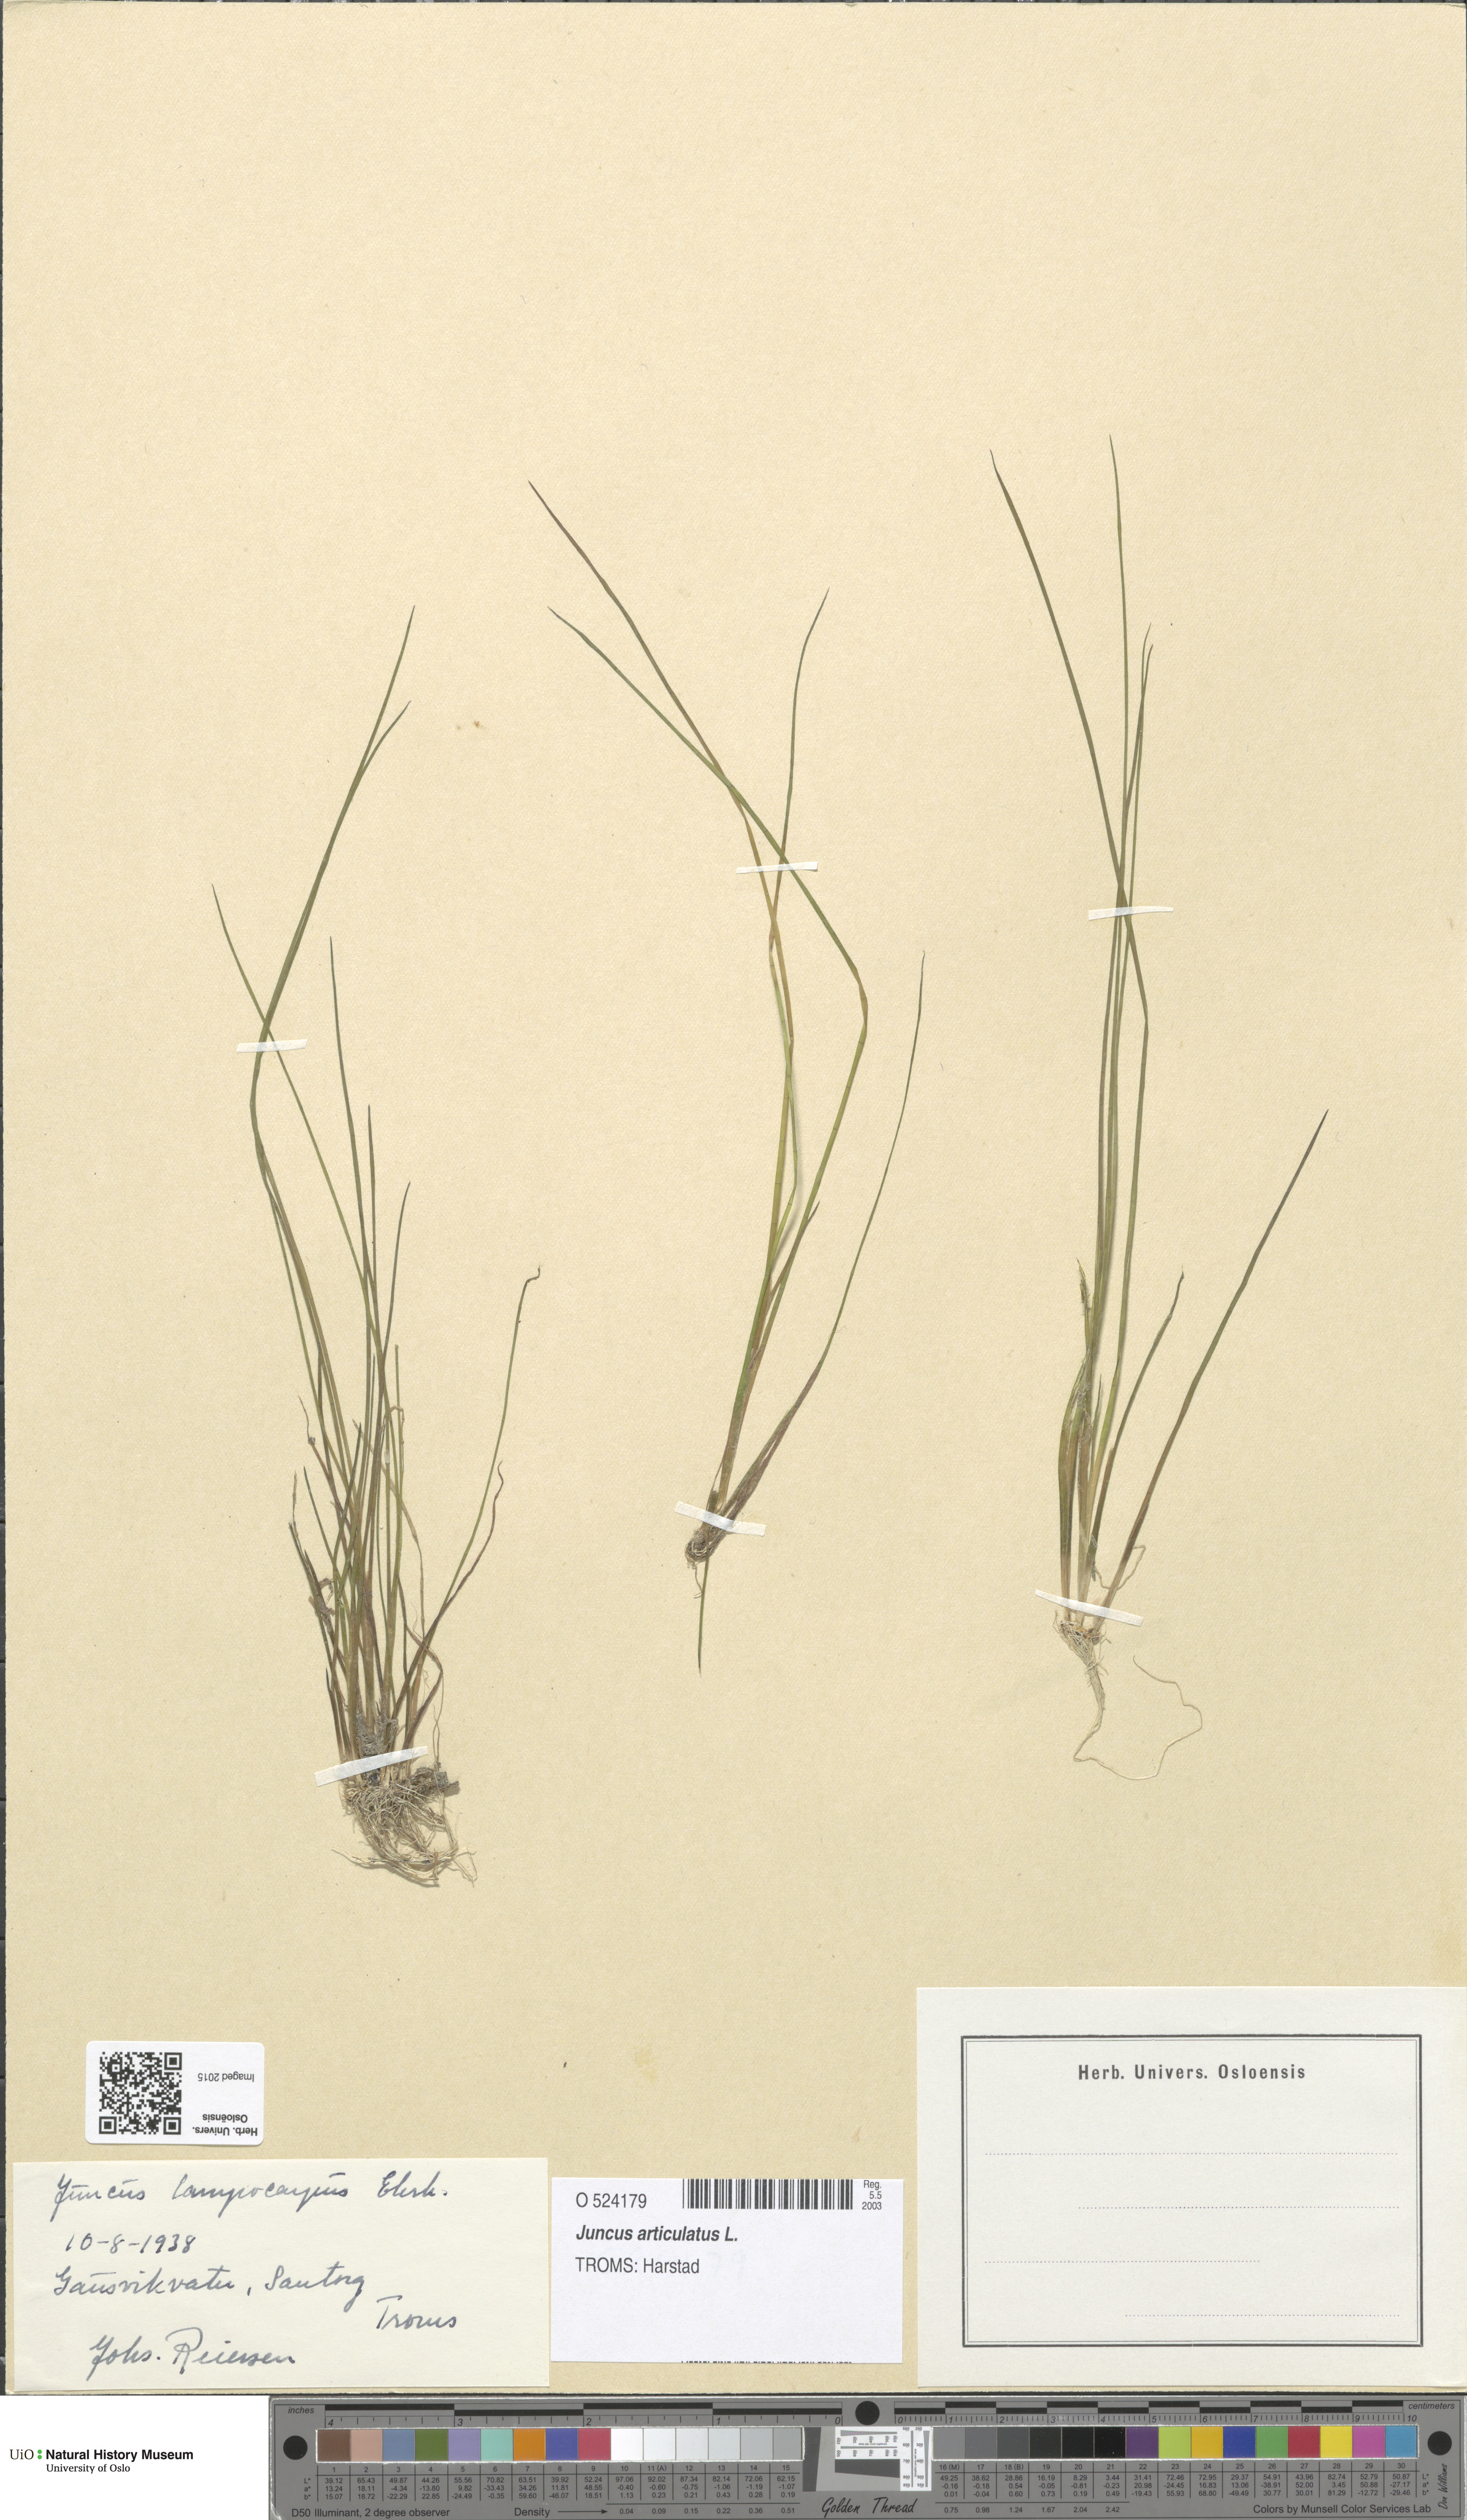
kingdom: Plantae
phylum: Tracheophyta
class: Liliopsida
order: Poales
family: Juncaceae
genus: Juncus
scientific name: Juncus articulatus
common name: Jointed rush
